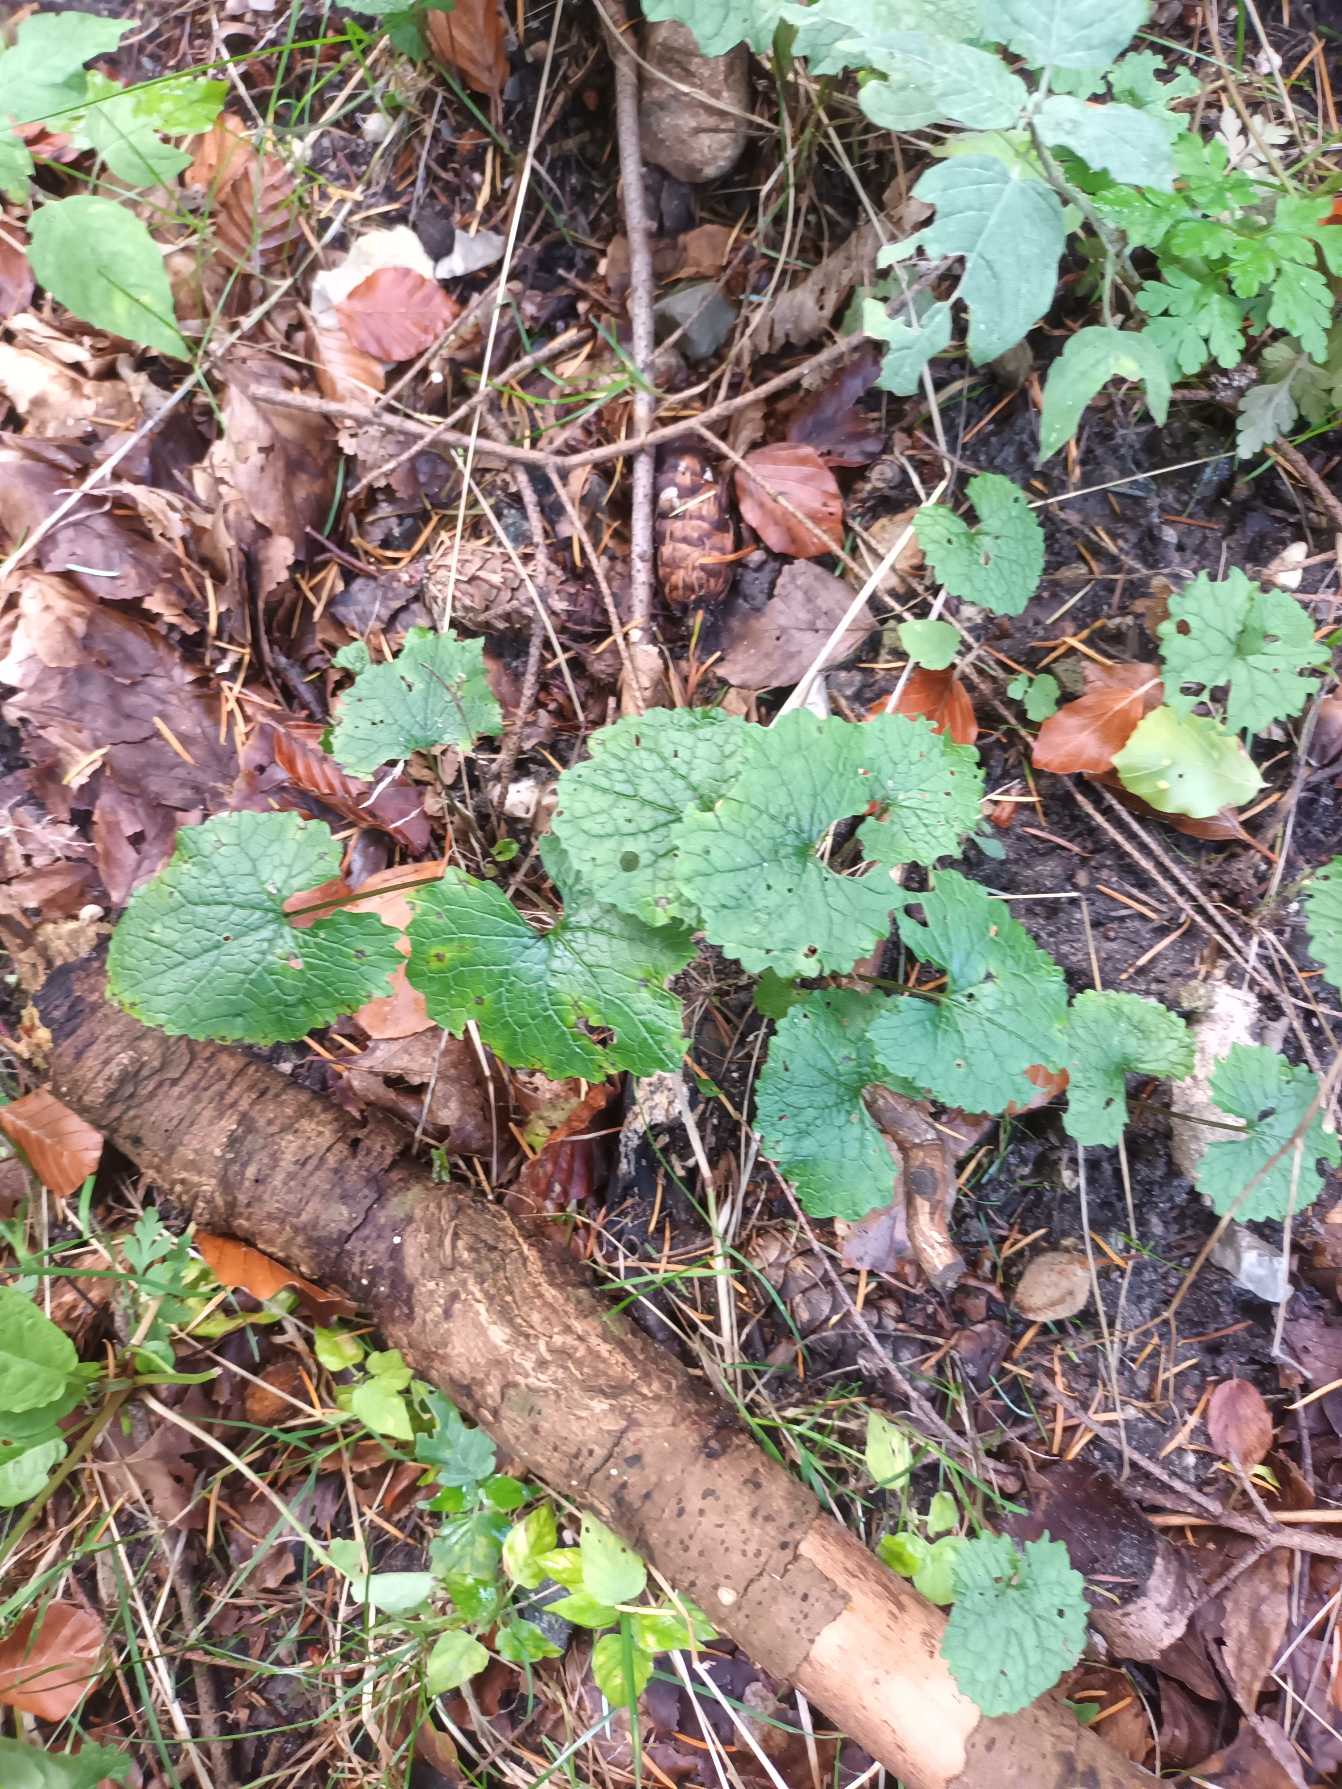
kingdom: Plantae
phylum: Tracheophyta
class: Magnoliopsida
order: Brassicales
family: Brassicaceae
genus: Alliaria
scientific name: Alliaria petiolata
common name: Løgkarse
